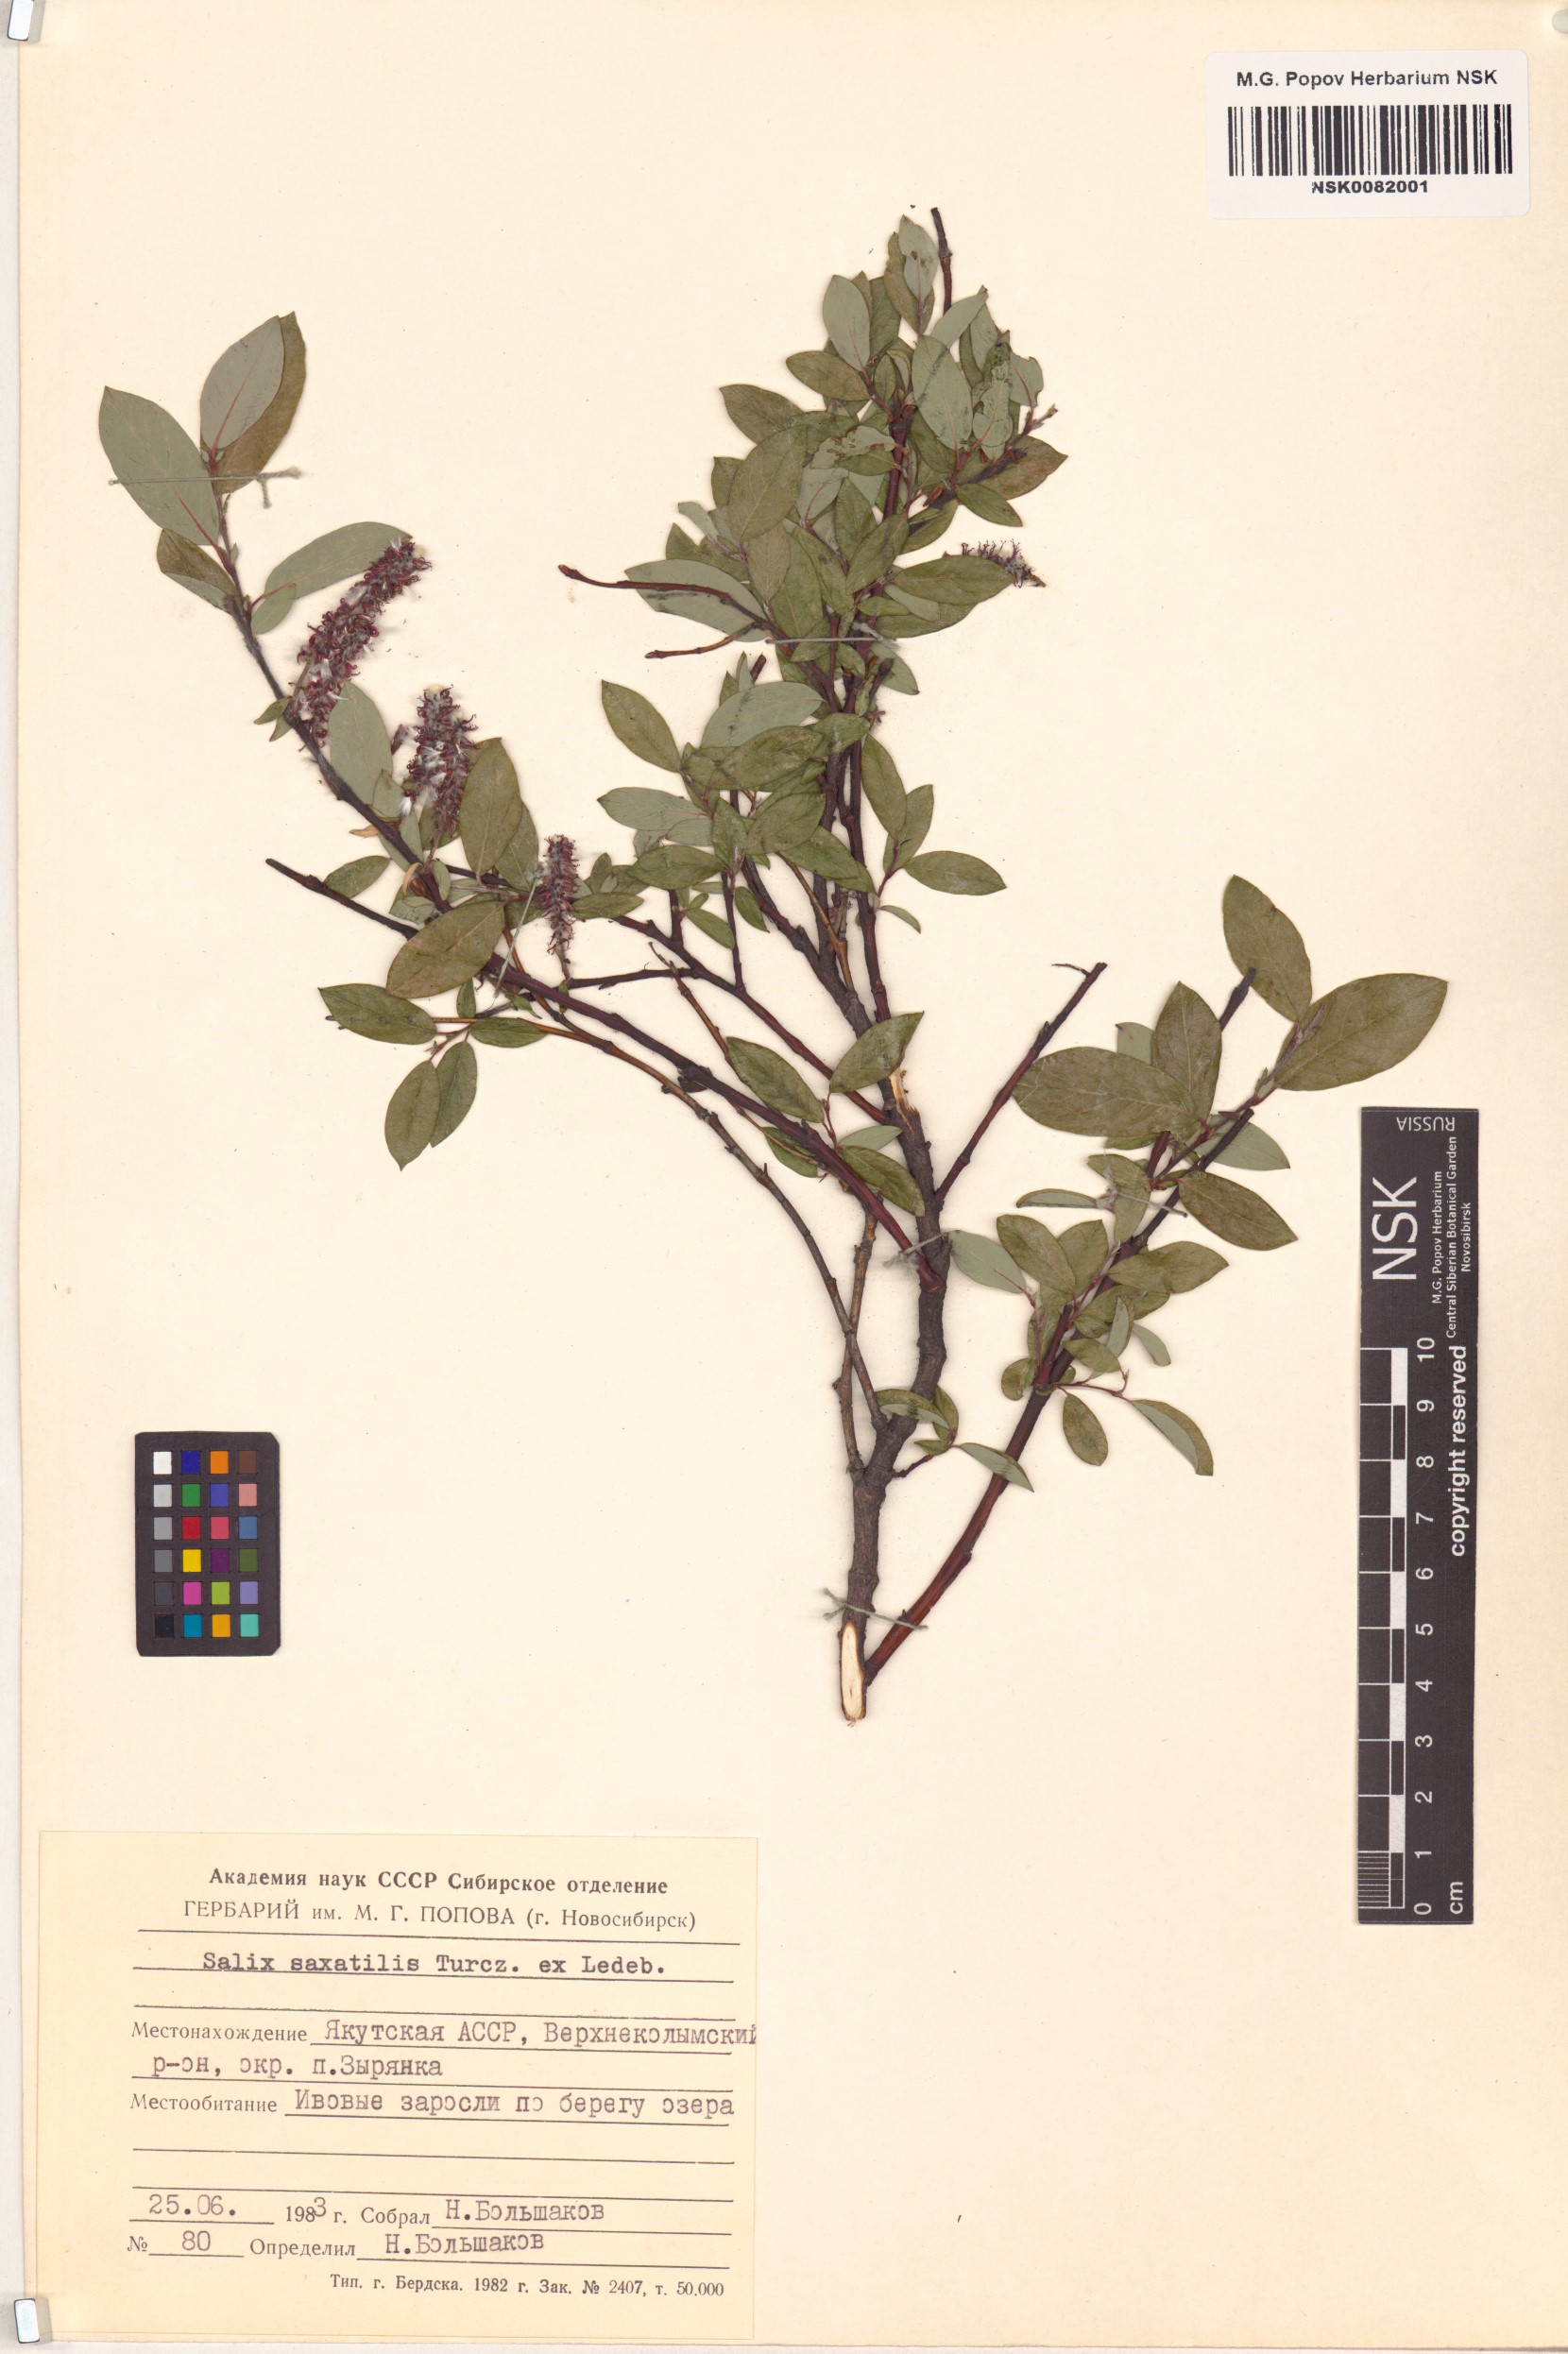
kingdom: Plantae
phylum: Tracheophyta
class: Magnoliopsida
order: Malpighiales
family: Salicaceae
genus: Salix
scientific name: Salix saxatilis
